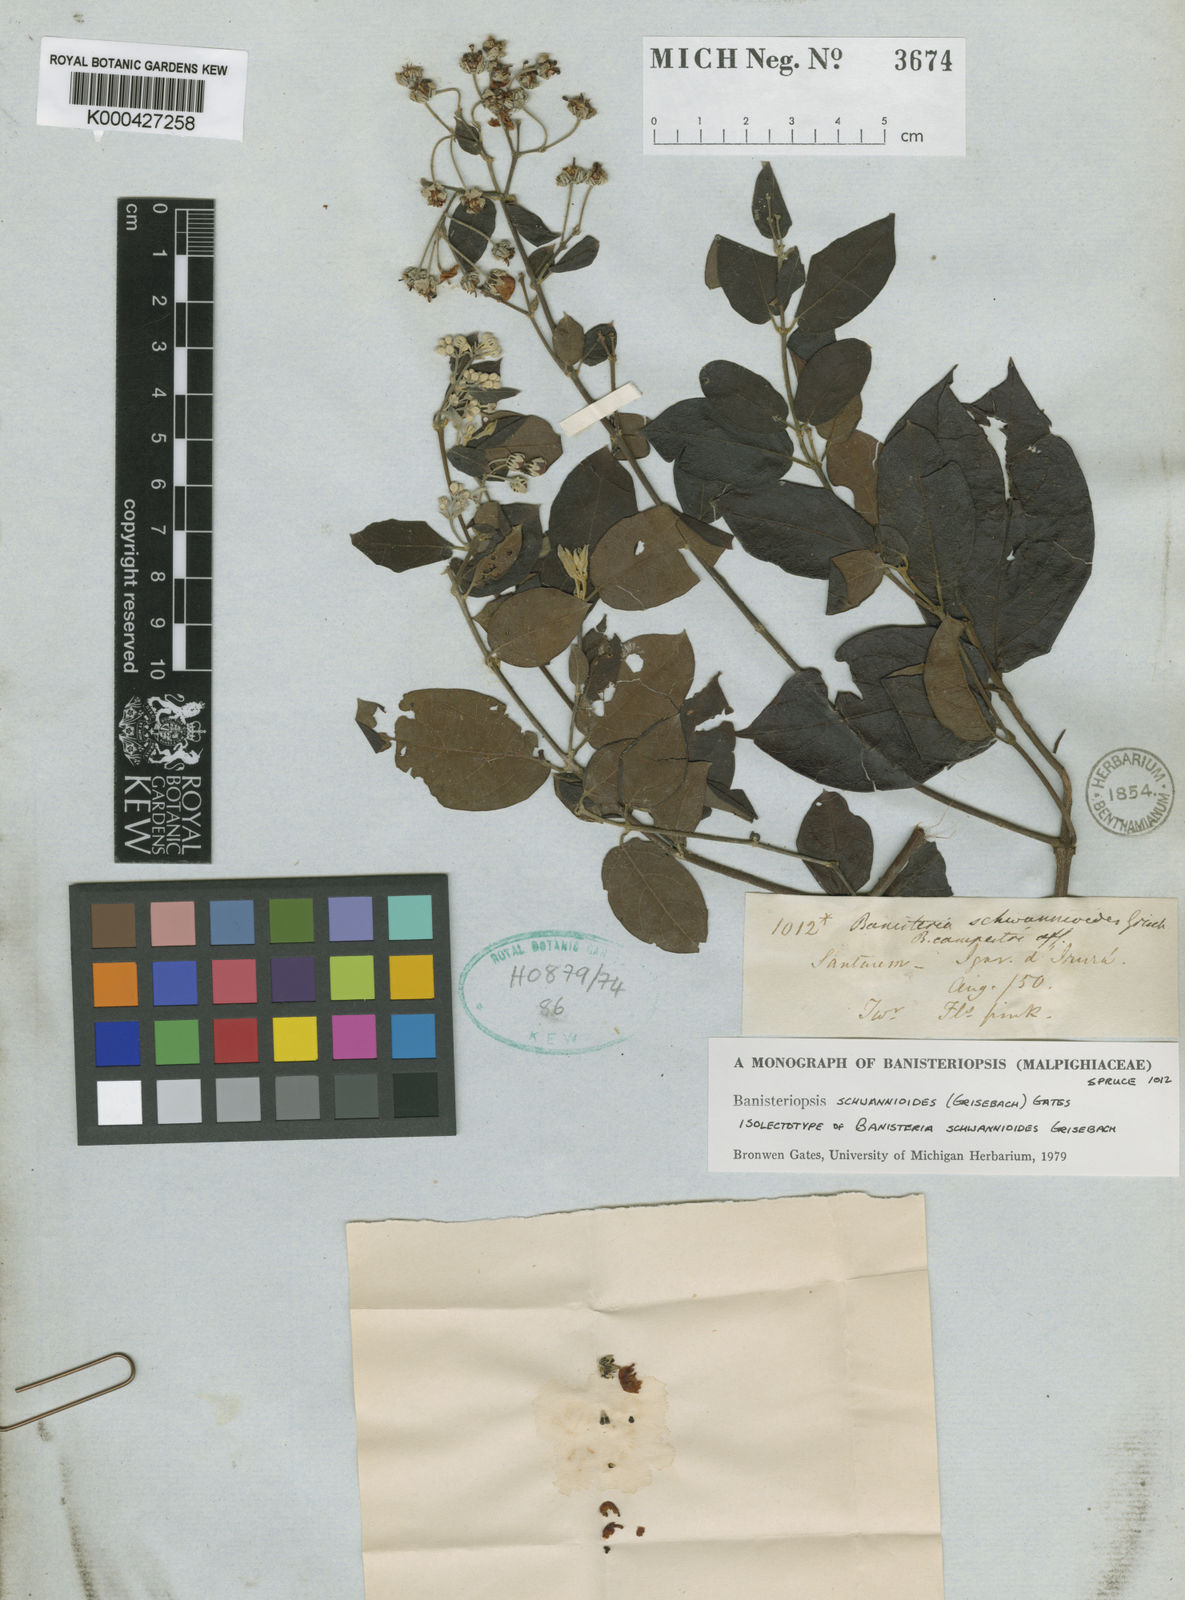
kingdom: Plantae
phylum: Tracheophyta
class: Magnoliopsida
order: Malpighiales
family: Malpighiaceae
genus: Banisteriopsis
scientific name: Banisteriopsis schwannioides
